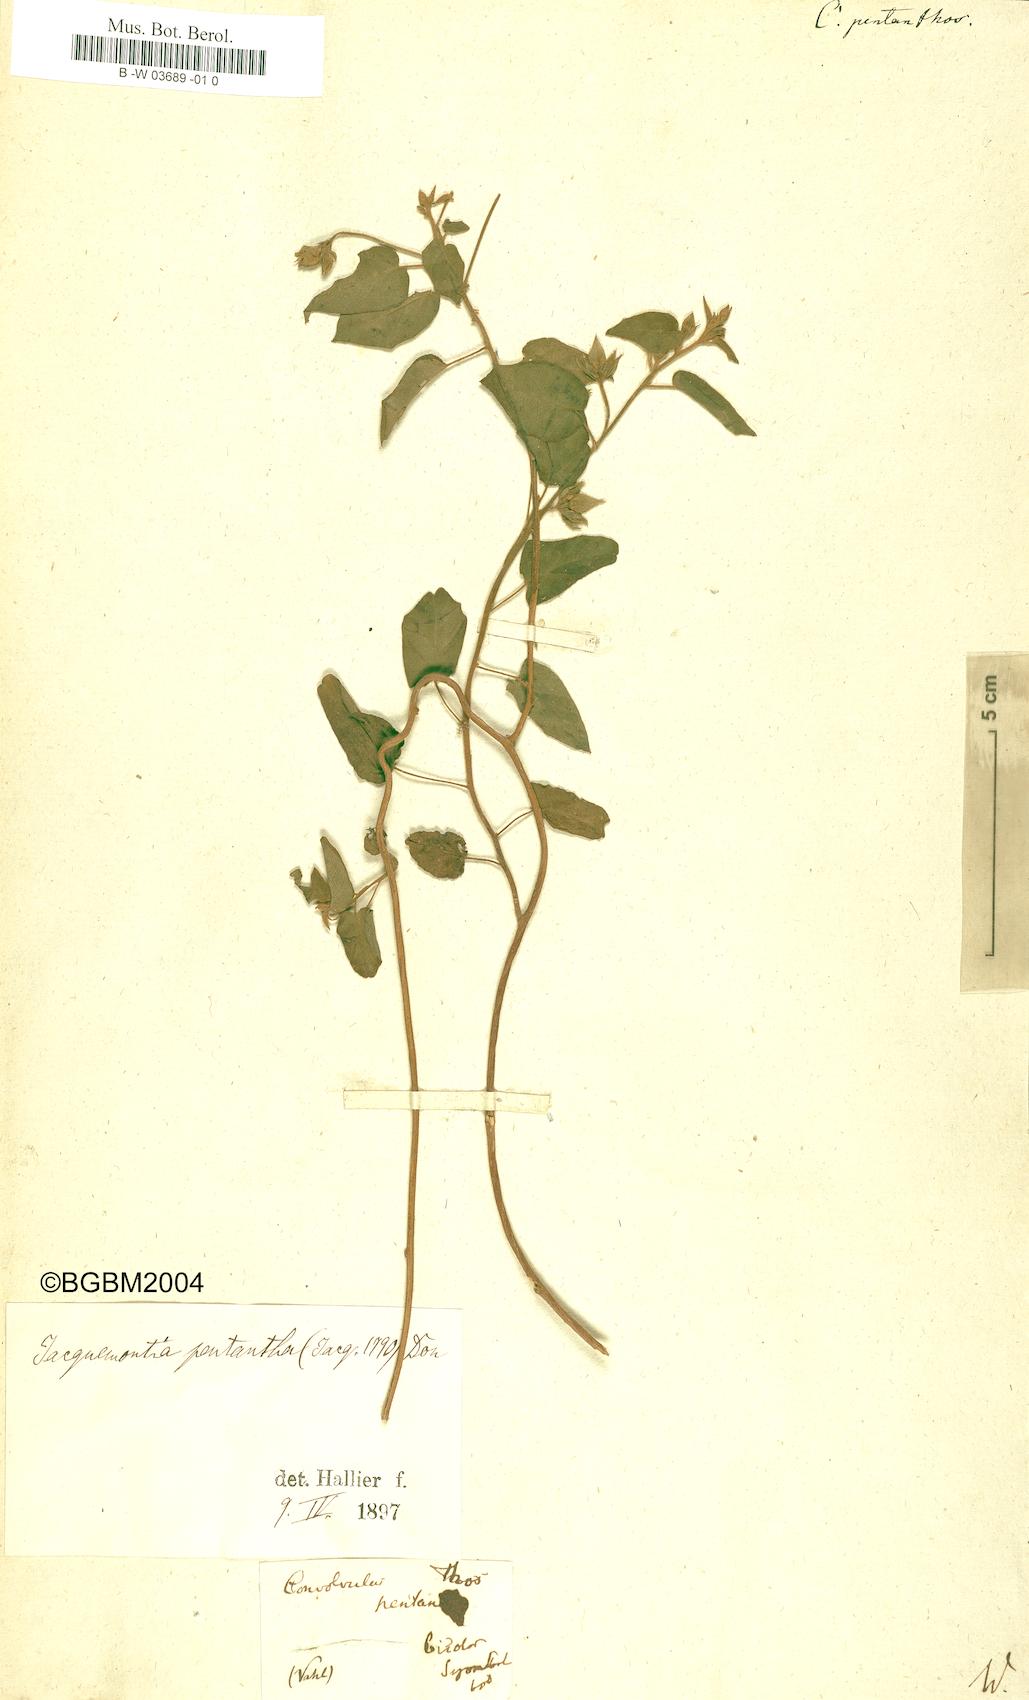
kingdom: Plantae
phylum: Tracheophyta
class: Magnoliopsida
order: Solanales
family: Convolvulaceae
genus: Jacquemontia
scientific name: Jacquemontia pentanthos
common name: Skyblue clustervine
